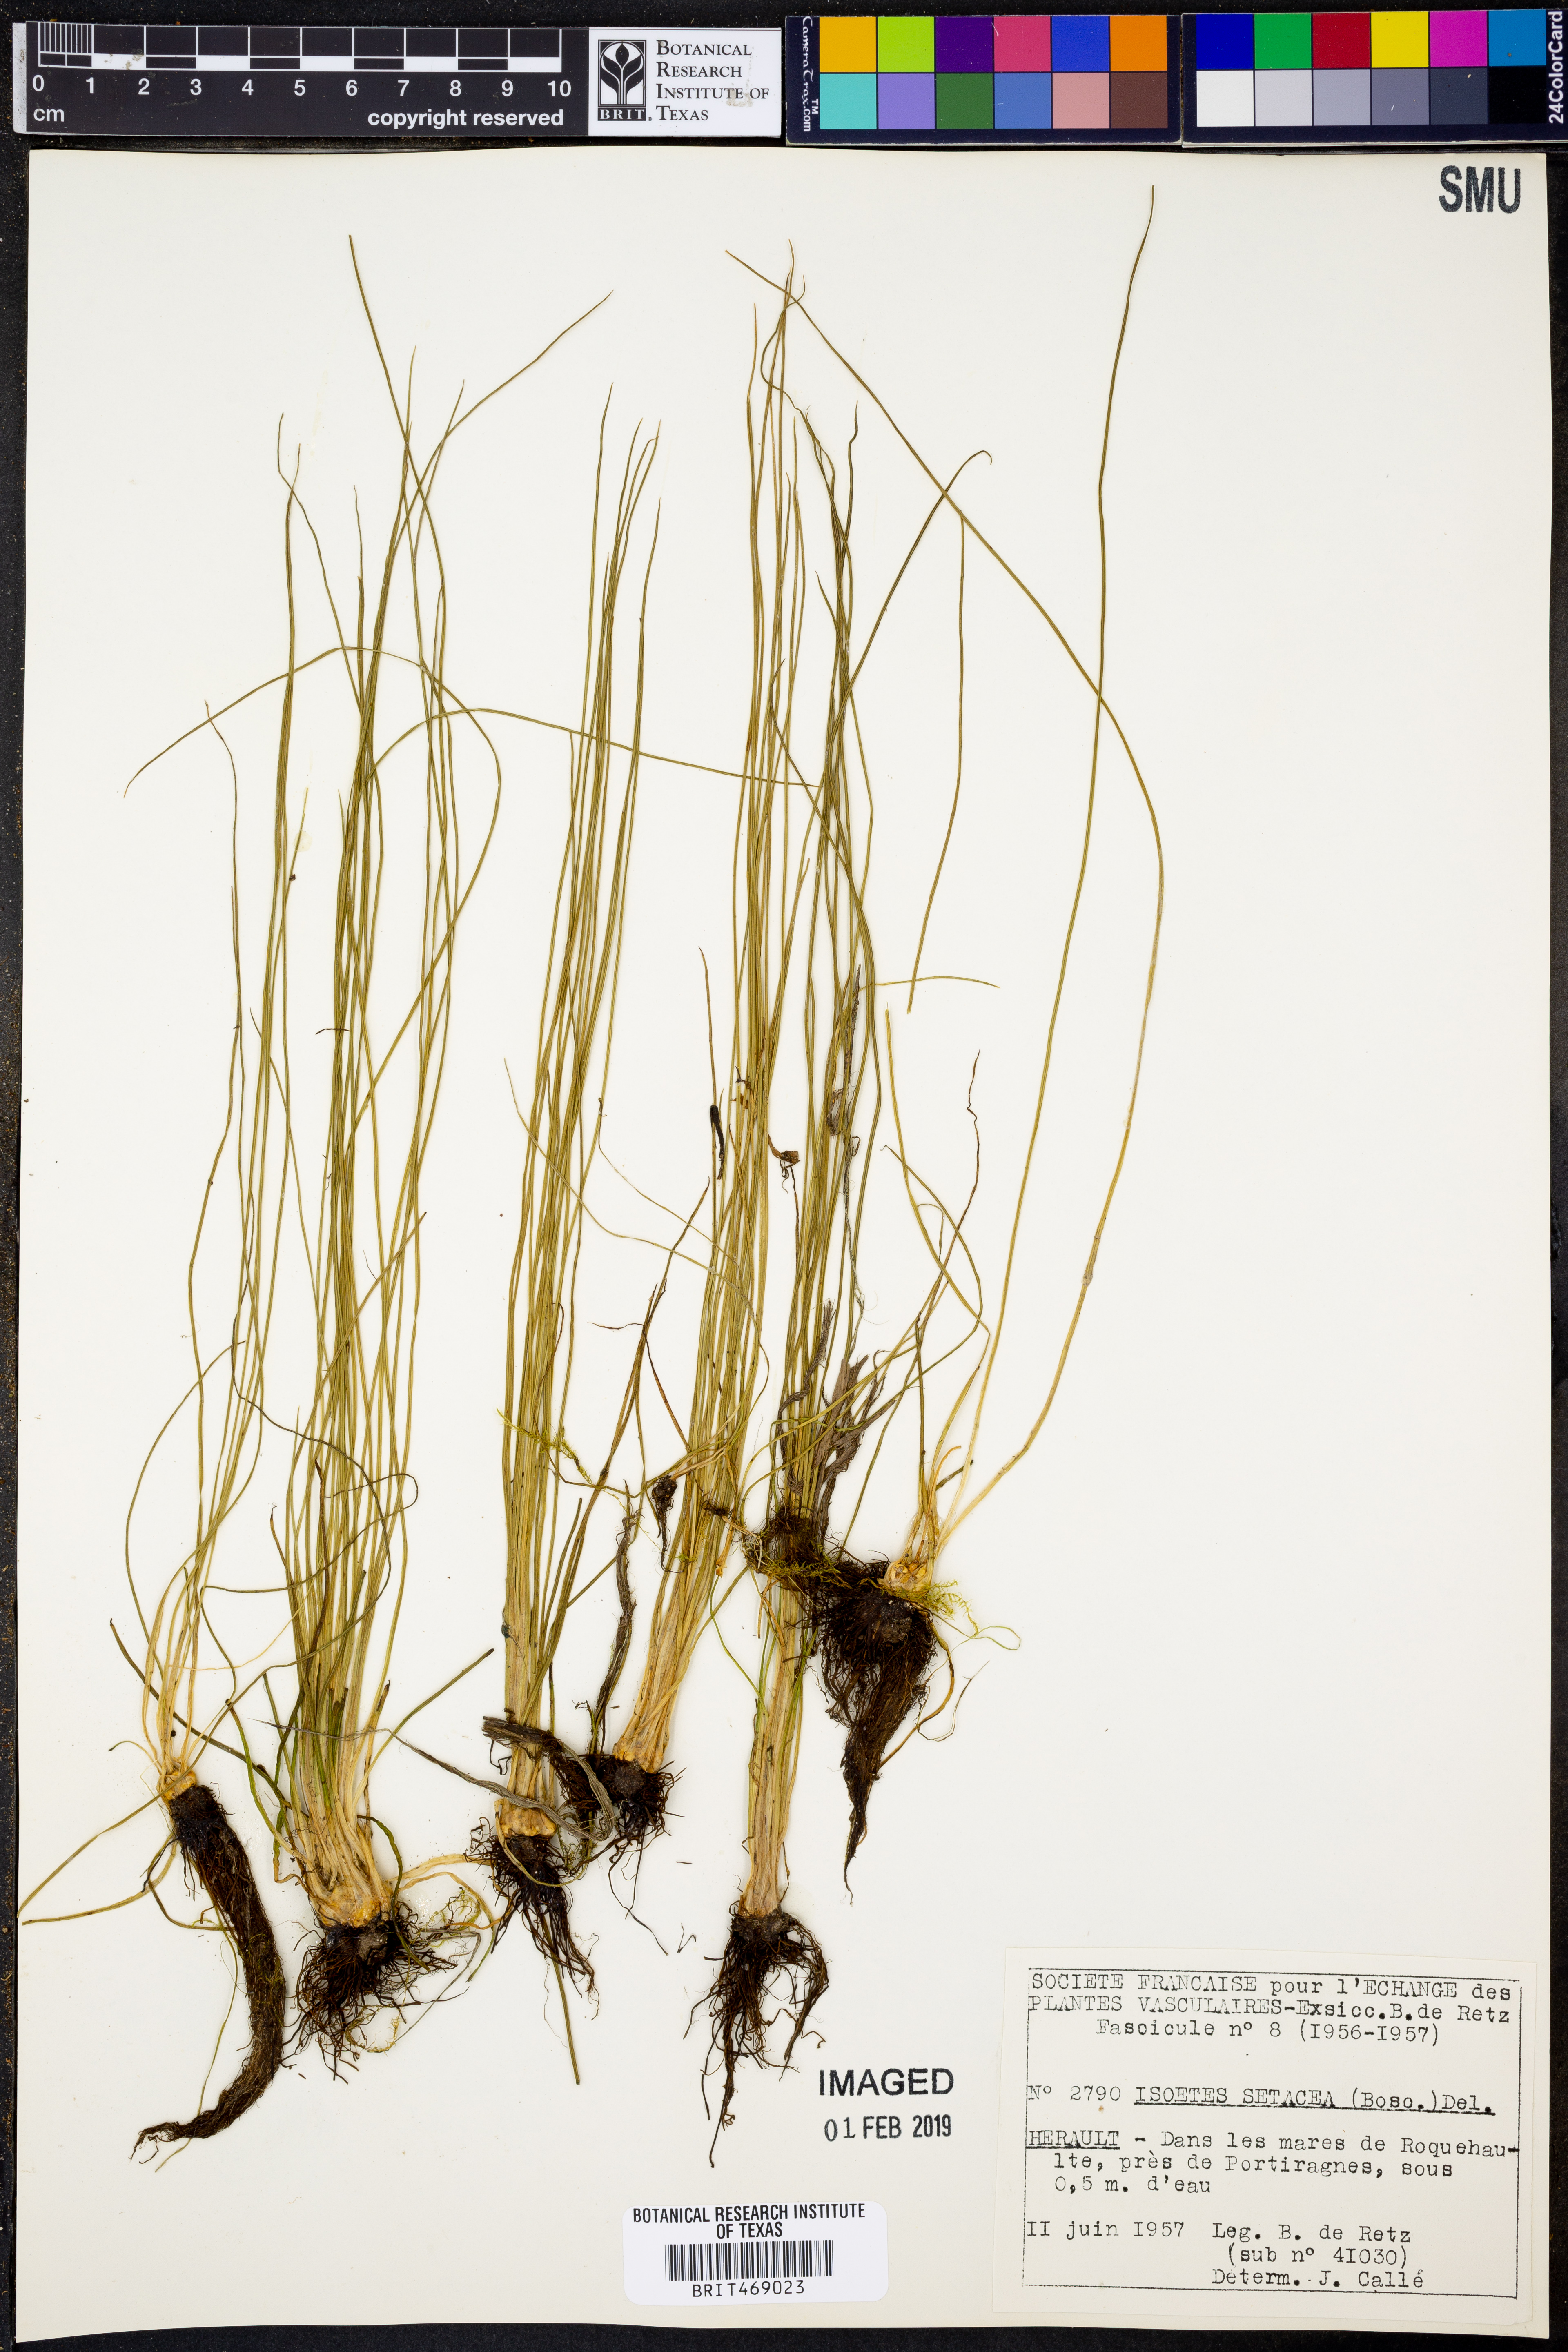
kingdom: Plantae
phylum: Tracheophyta
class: Lycopodiopsida
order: Isoetales
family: Isoetaceae
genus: Isoetes
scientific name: Isoetes lacustris
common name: Common quillwort
